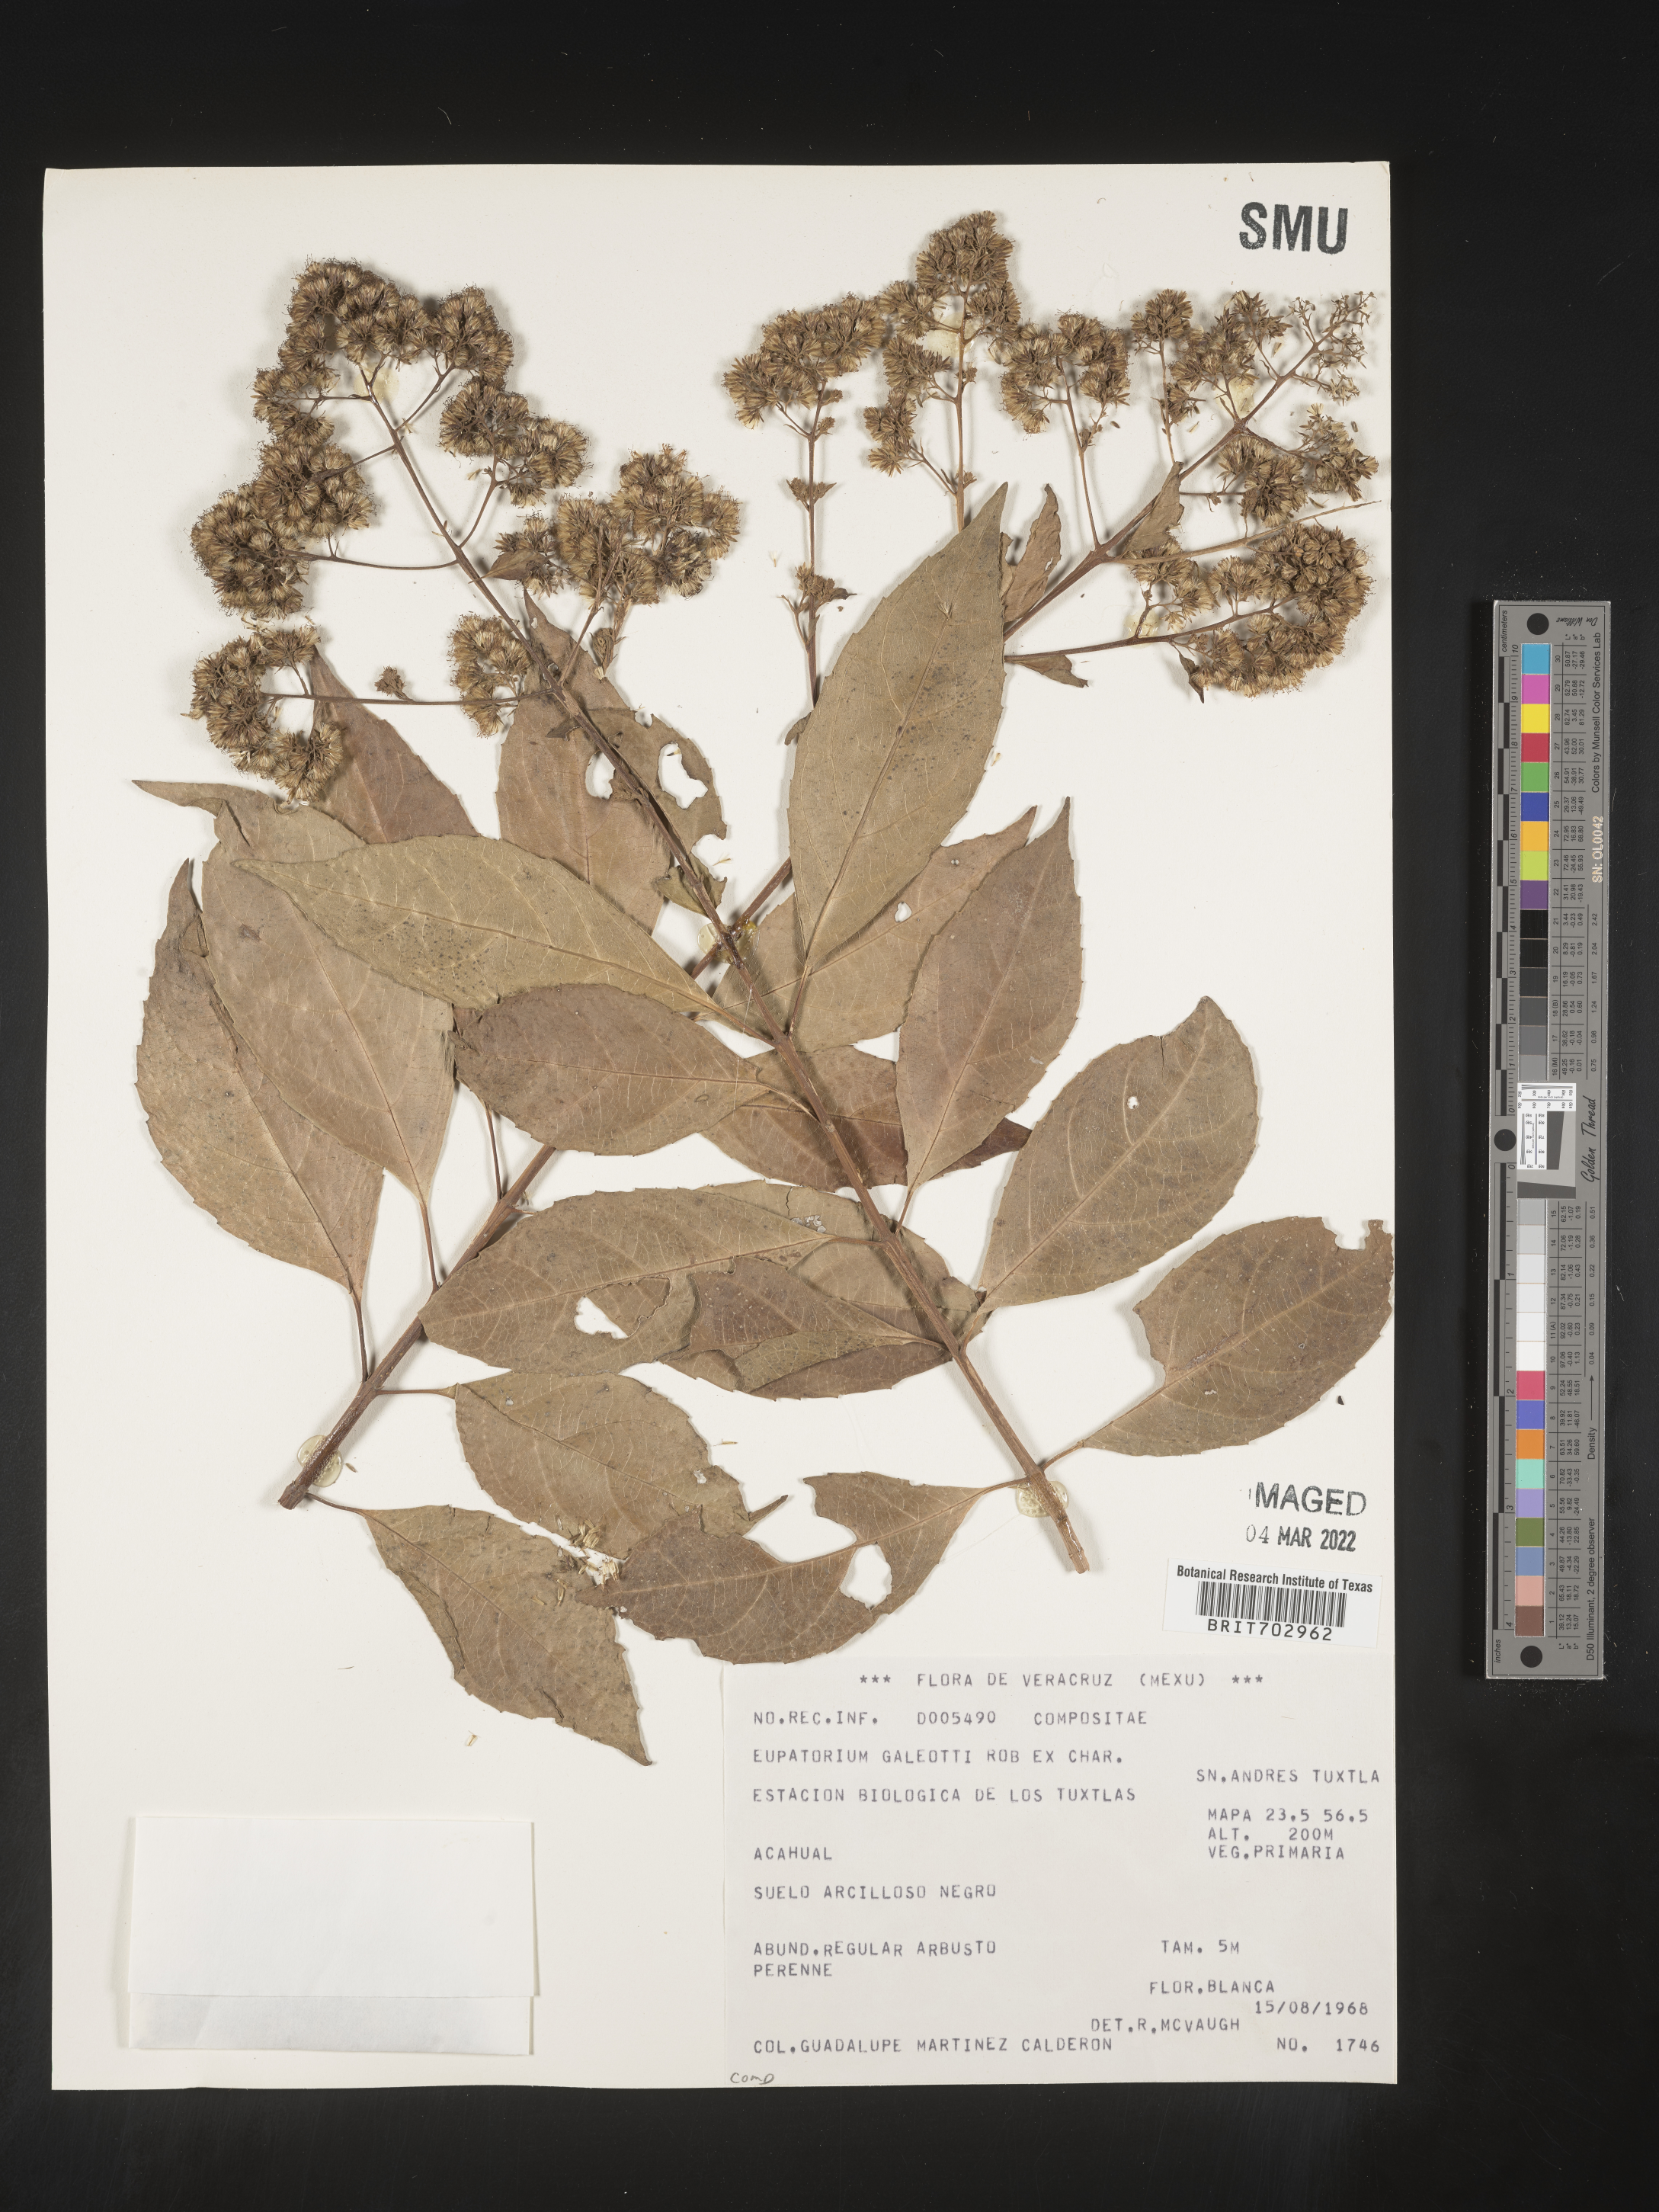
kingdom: Plantae
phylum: Tracheophyta
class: Magnoliopsida
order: Asterales
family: Asteraceae
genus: Eupatorium
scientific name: Eupatorium
